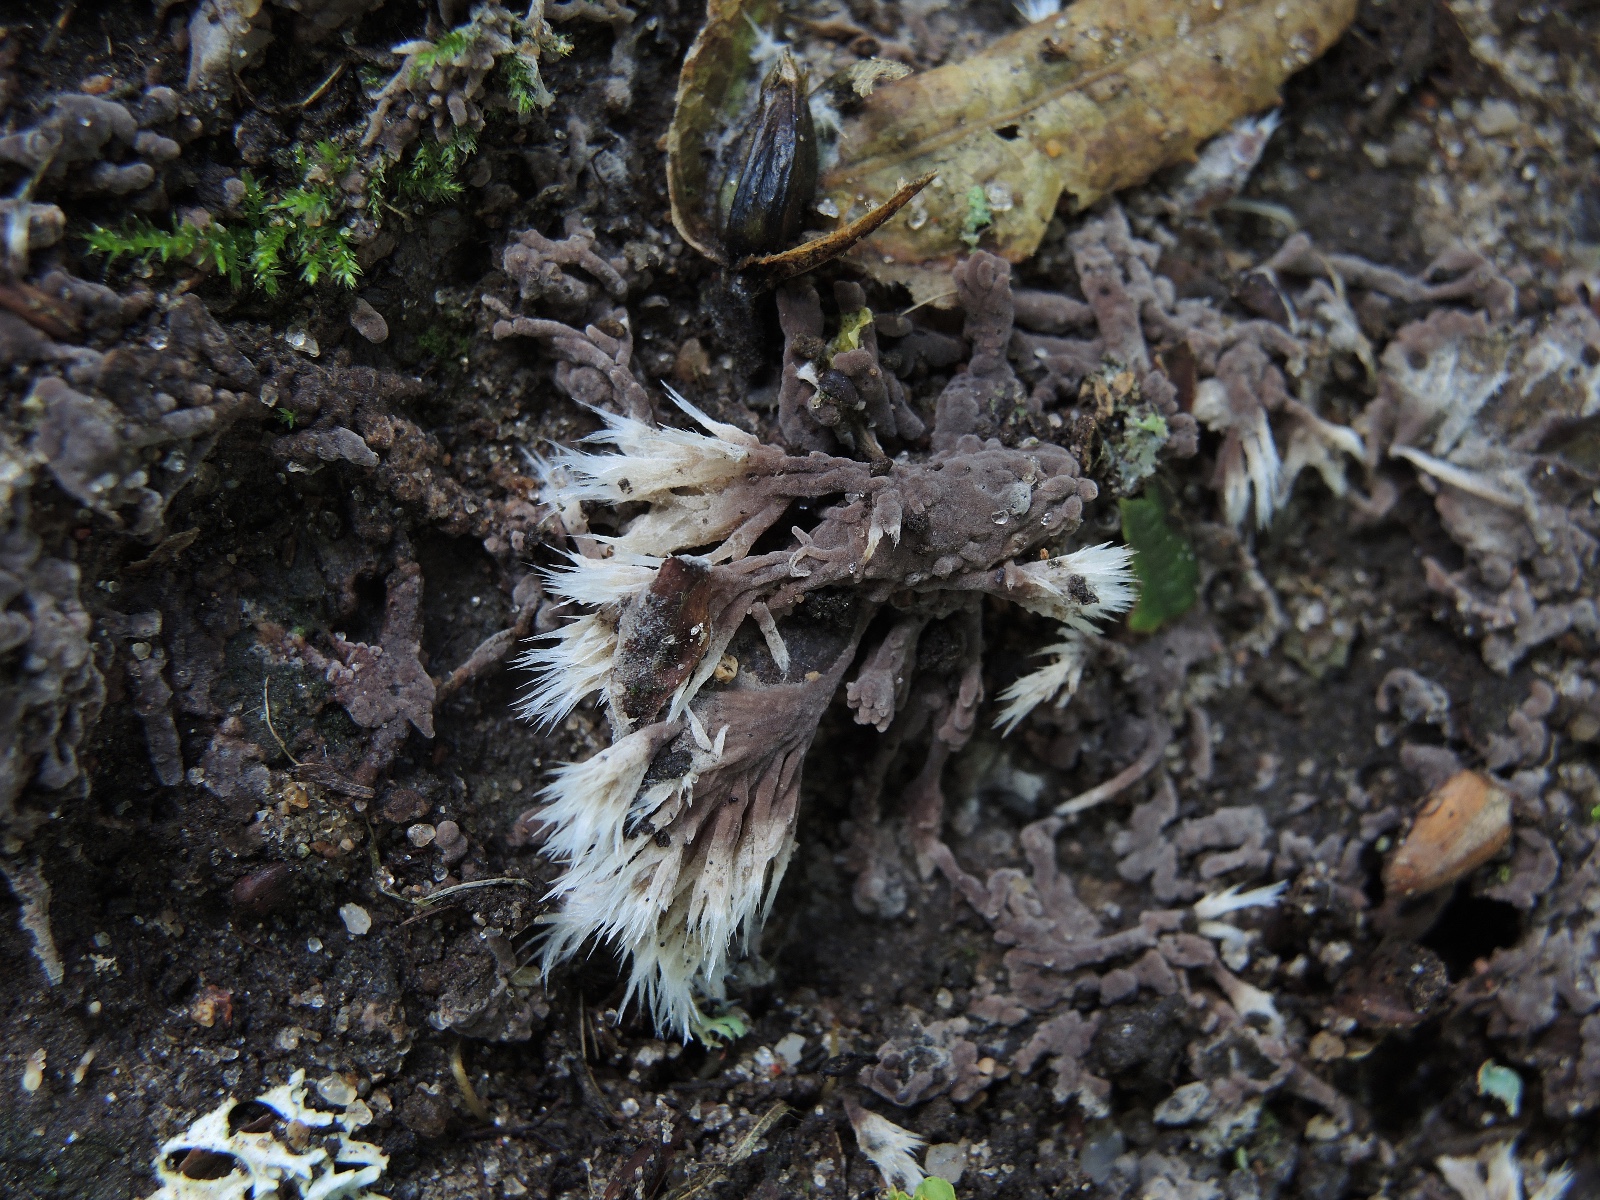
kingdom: Fungi
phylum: Basidiomycota
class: Agaricomycetes
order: Thelephorales
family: Thelephoraceae
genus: Thelephora
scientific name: Thelephora penicillata
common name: fladtrådt frynsesvamp
